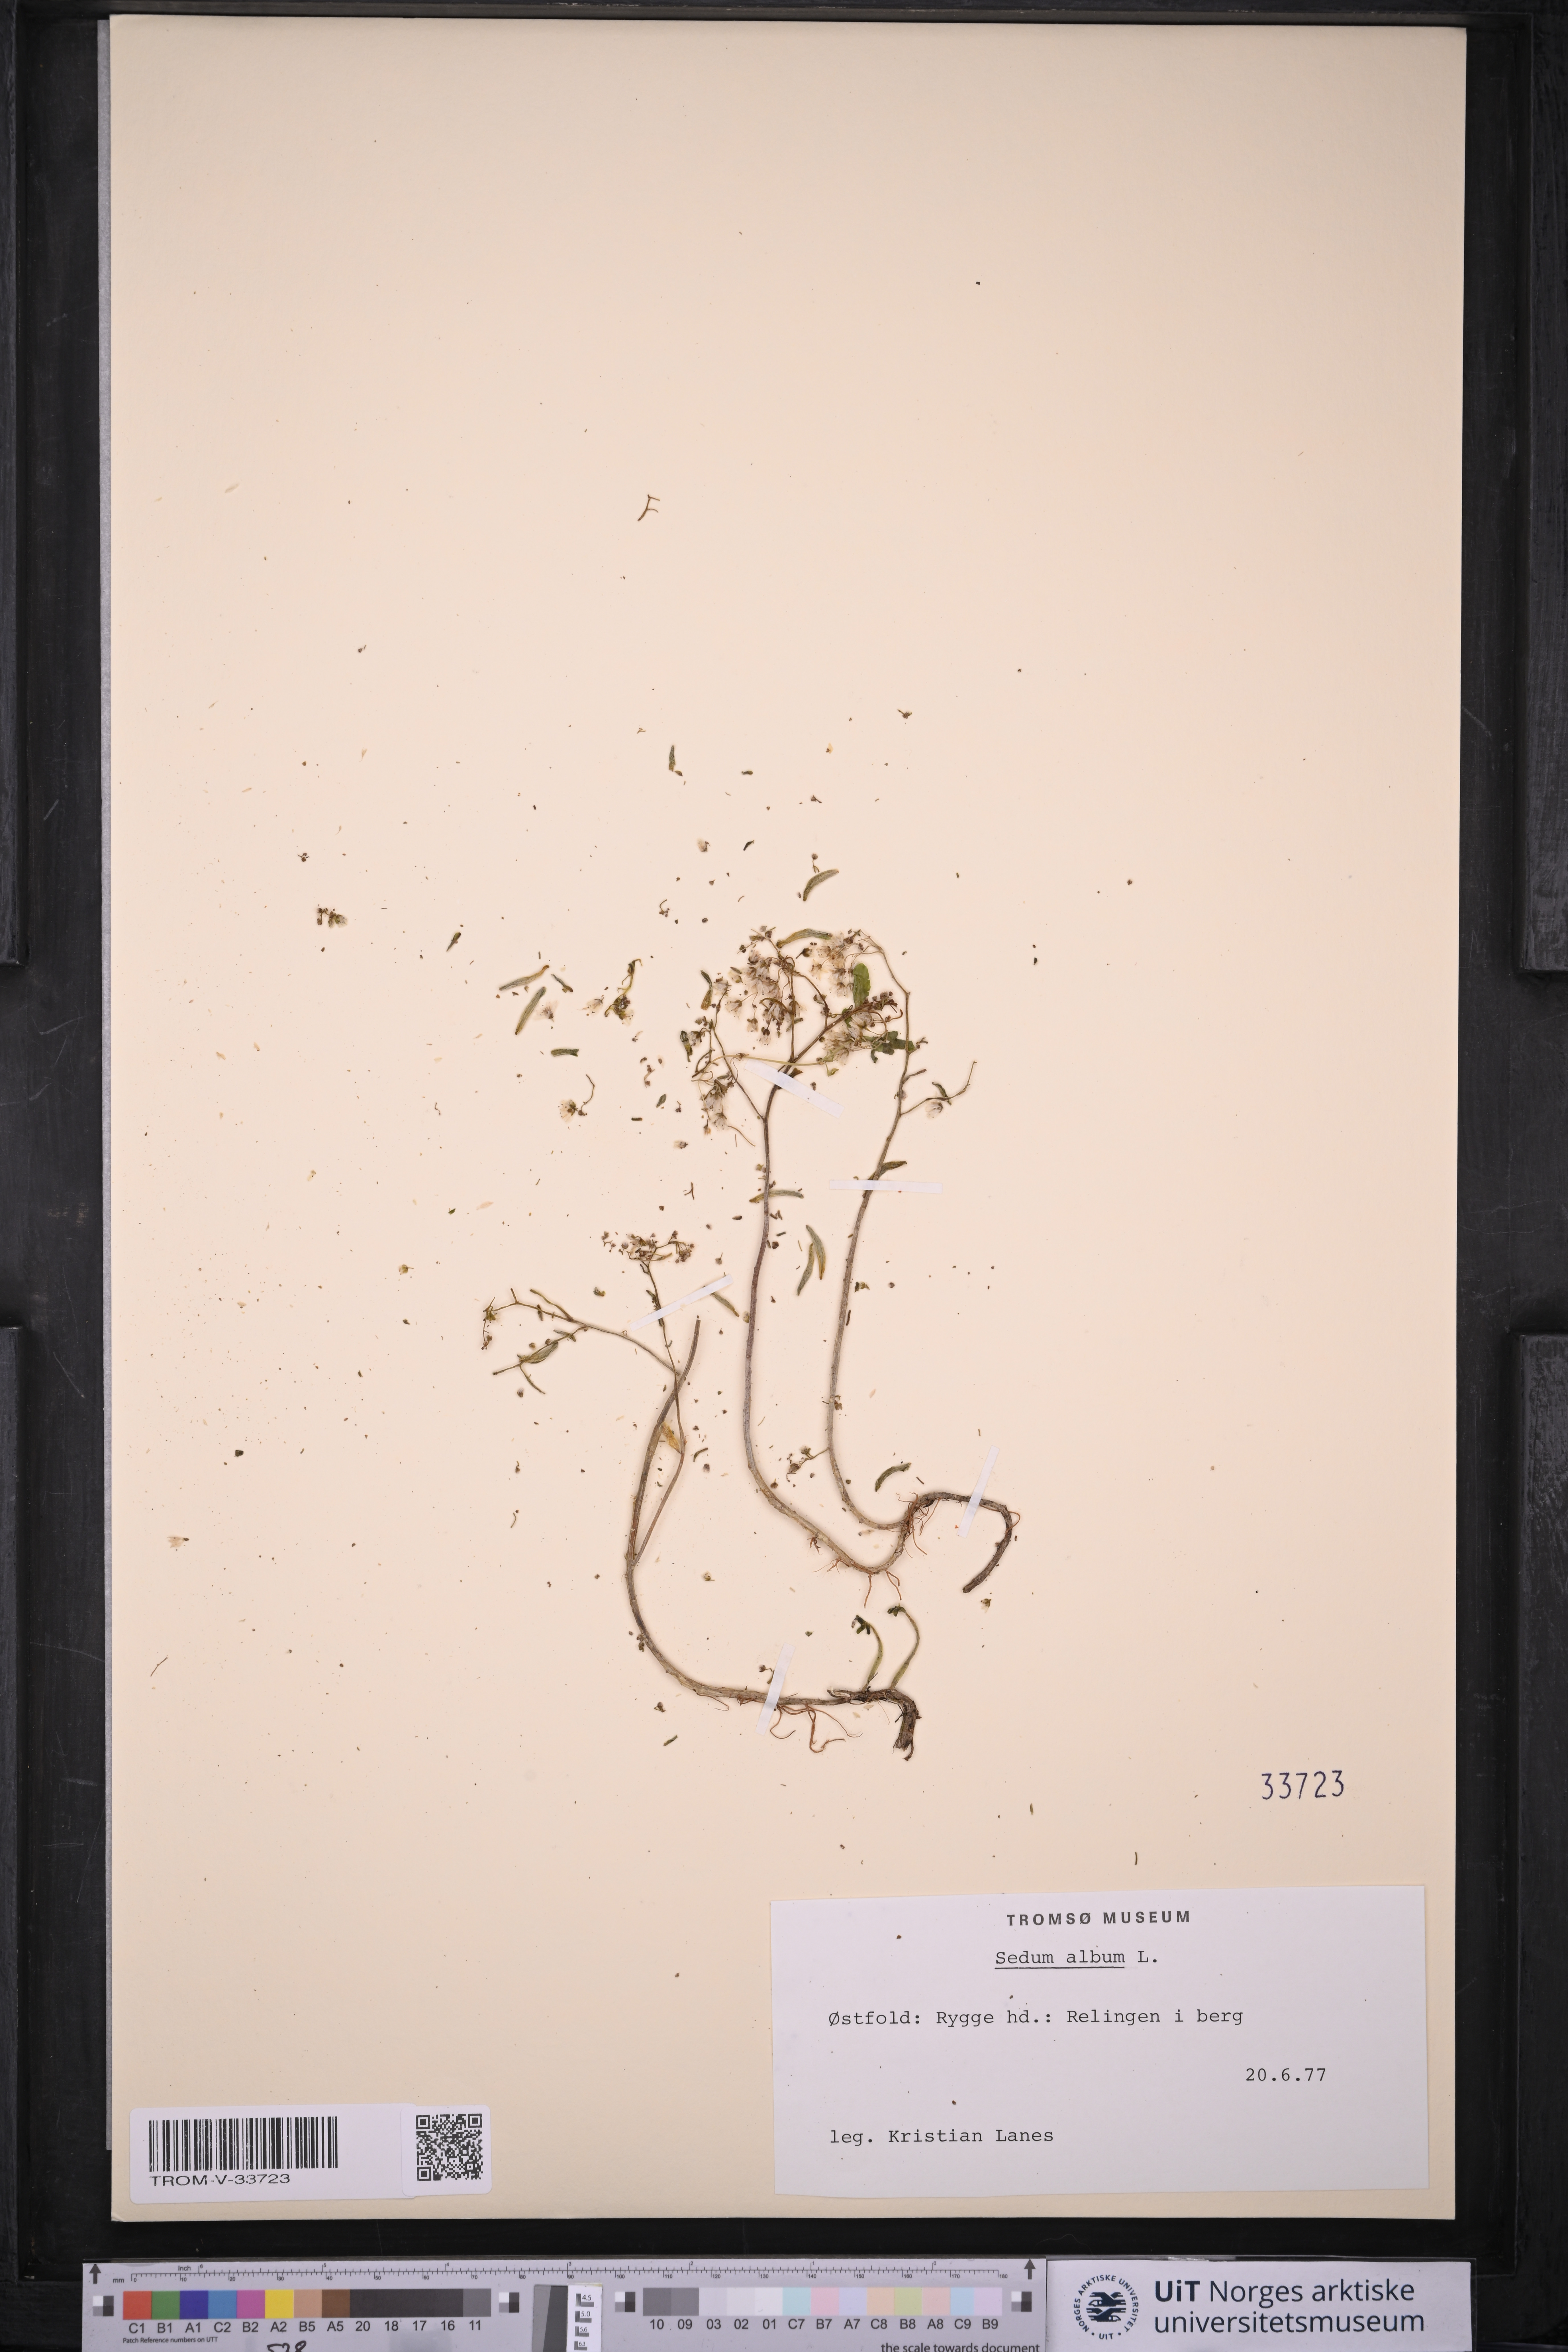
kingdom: Plantae
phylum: Tracheophyta
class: Magnoliopsida
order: Saxifragales
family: Crassulaceae
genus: Sedum
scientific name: Sedum album
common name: White stonecrop
